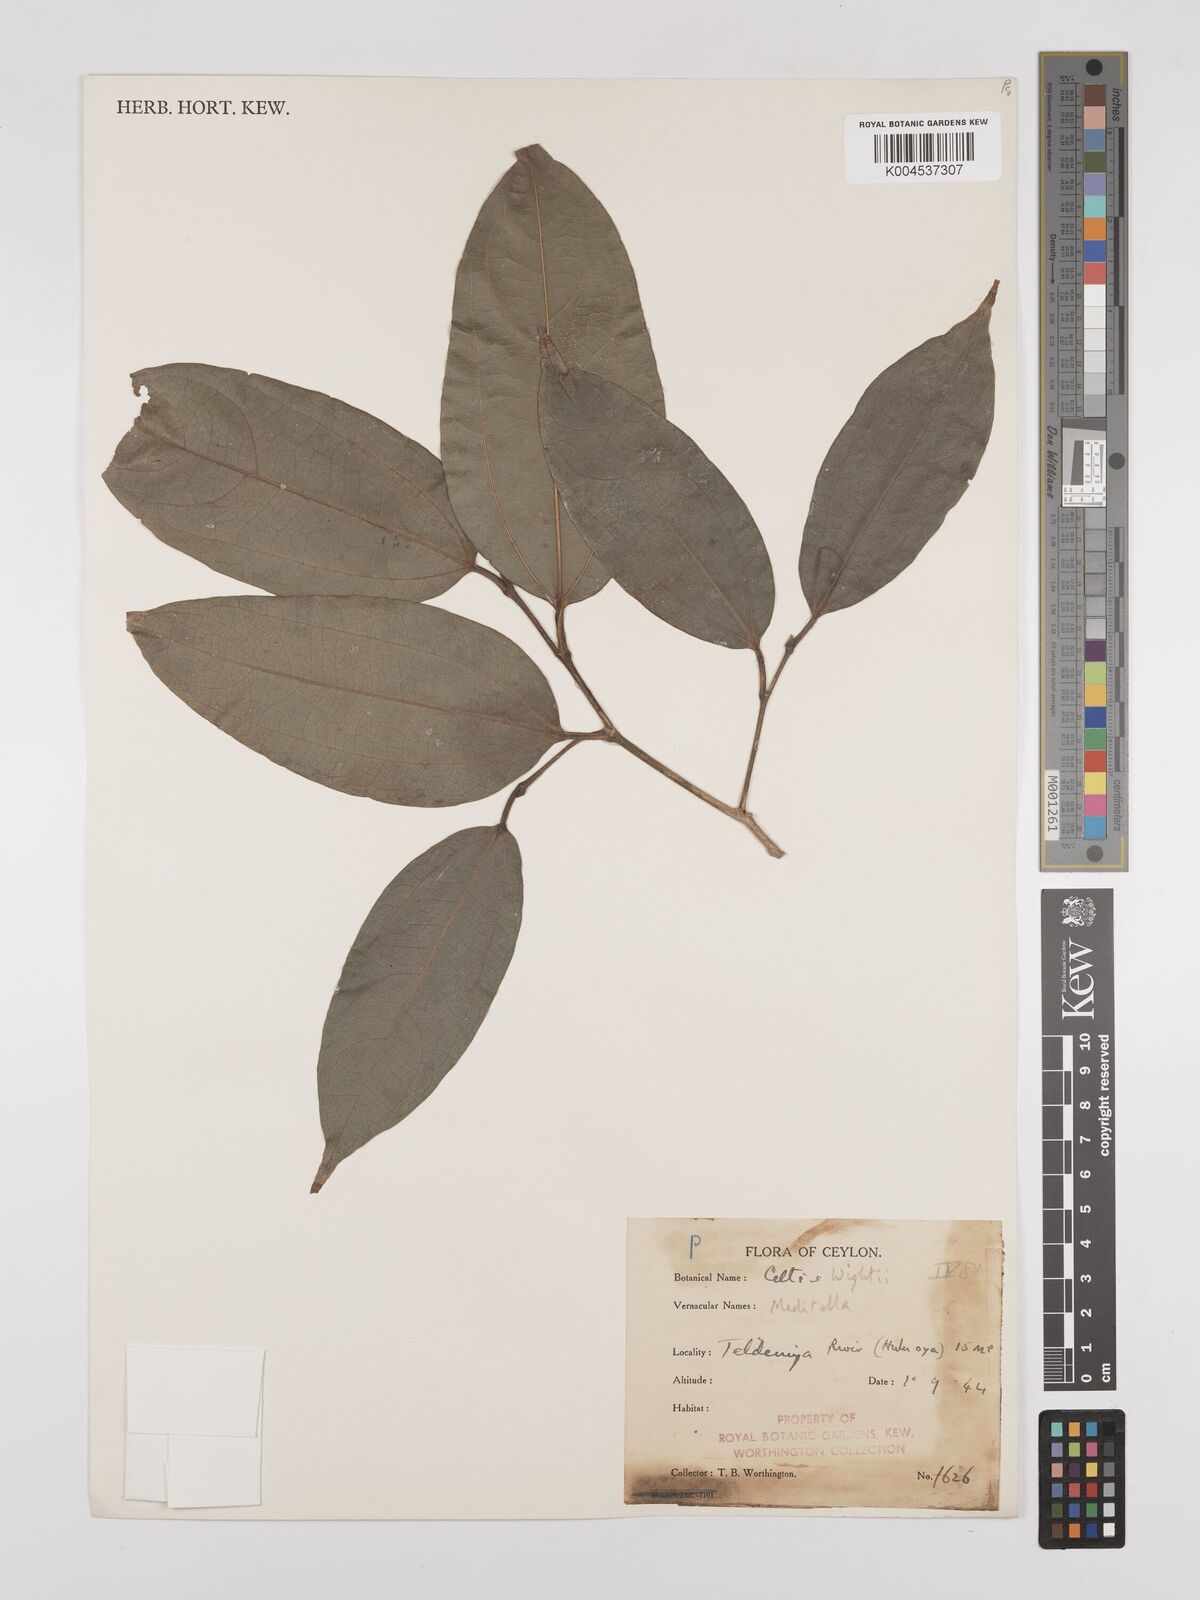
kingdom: Plantae
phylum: Tracheophyta
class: Magnoliopsida
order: Rosales
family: Cannabaceae
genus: Celtis
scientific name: Celtis philippensis
